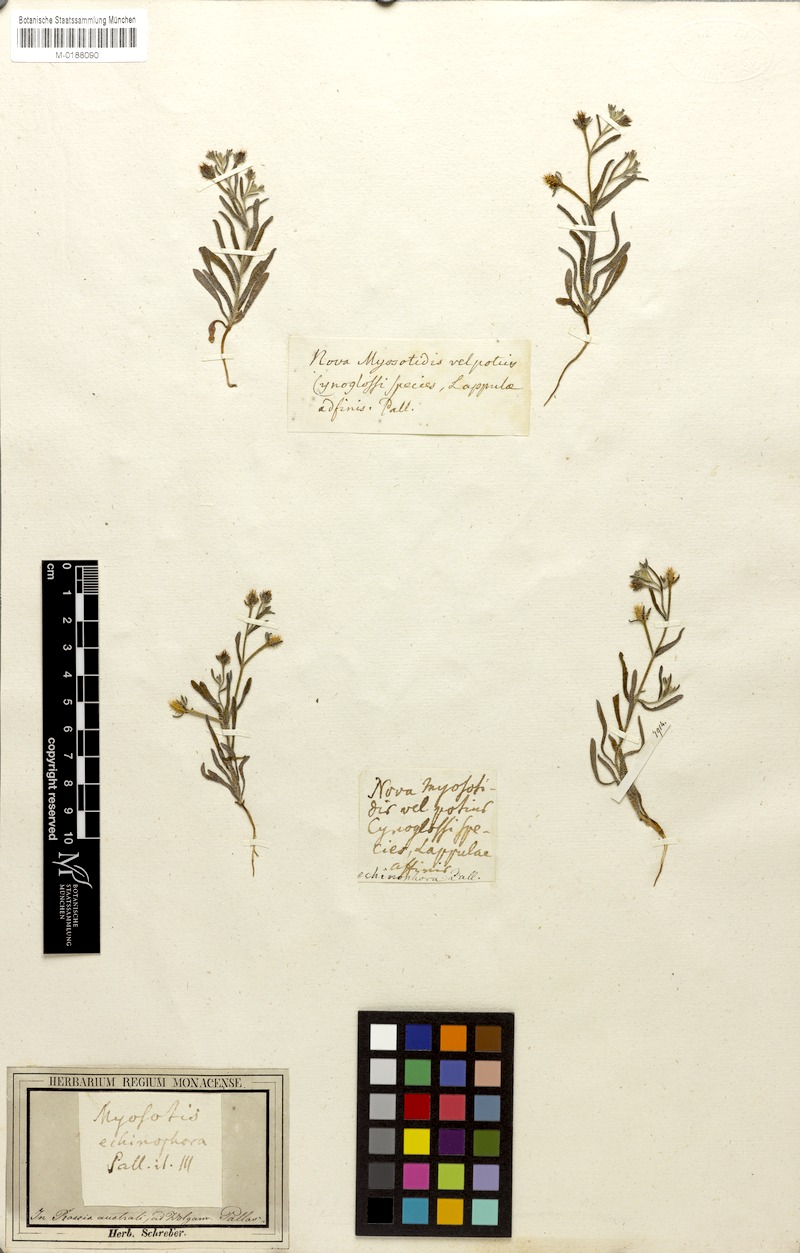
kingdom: Plantae
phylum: Tracheophyta
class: Magnoliopsida
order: Boraginales
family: Boraginaceae
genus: Heterocaryum
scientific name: Heterocaryum echinophorum
